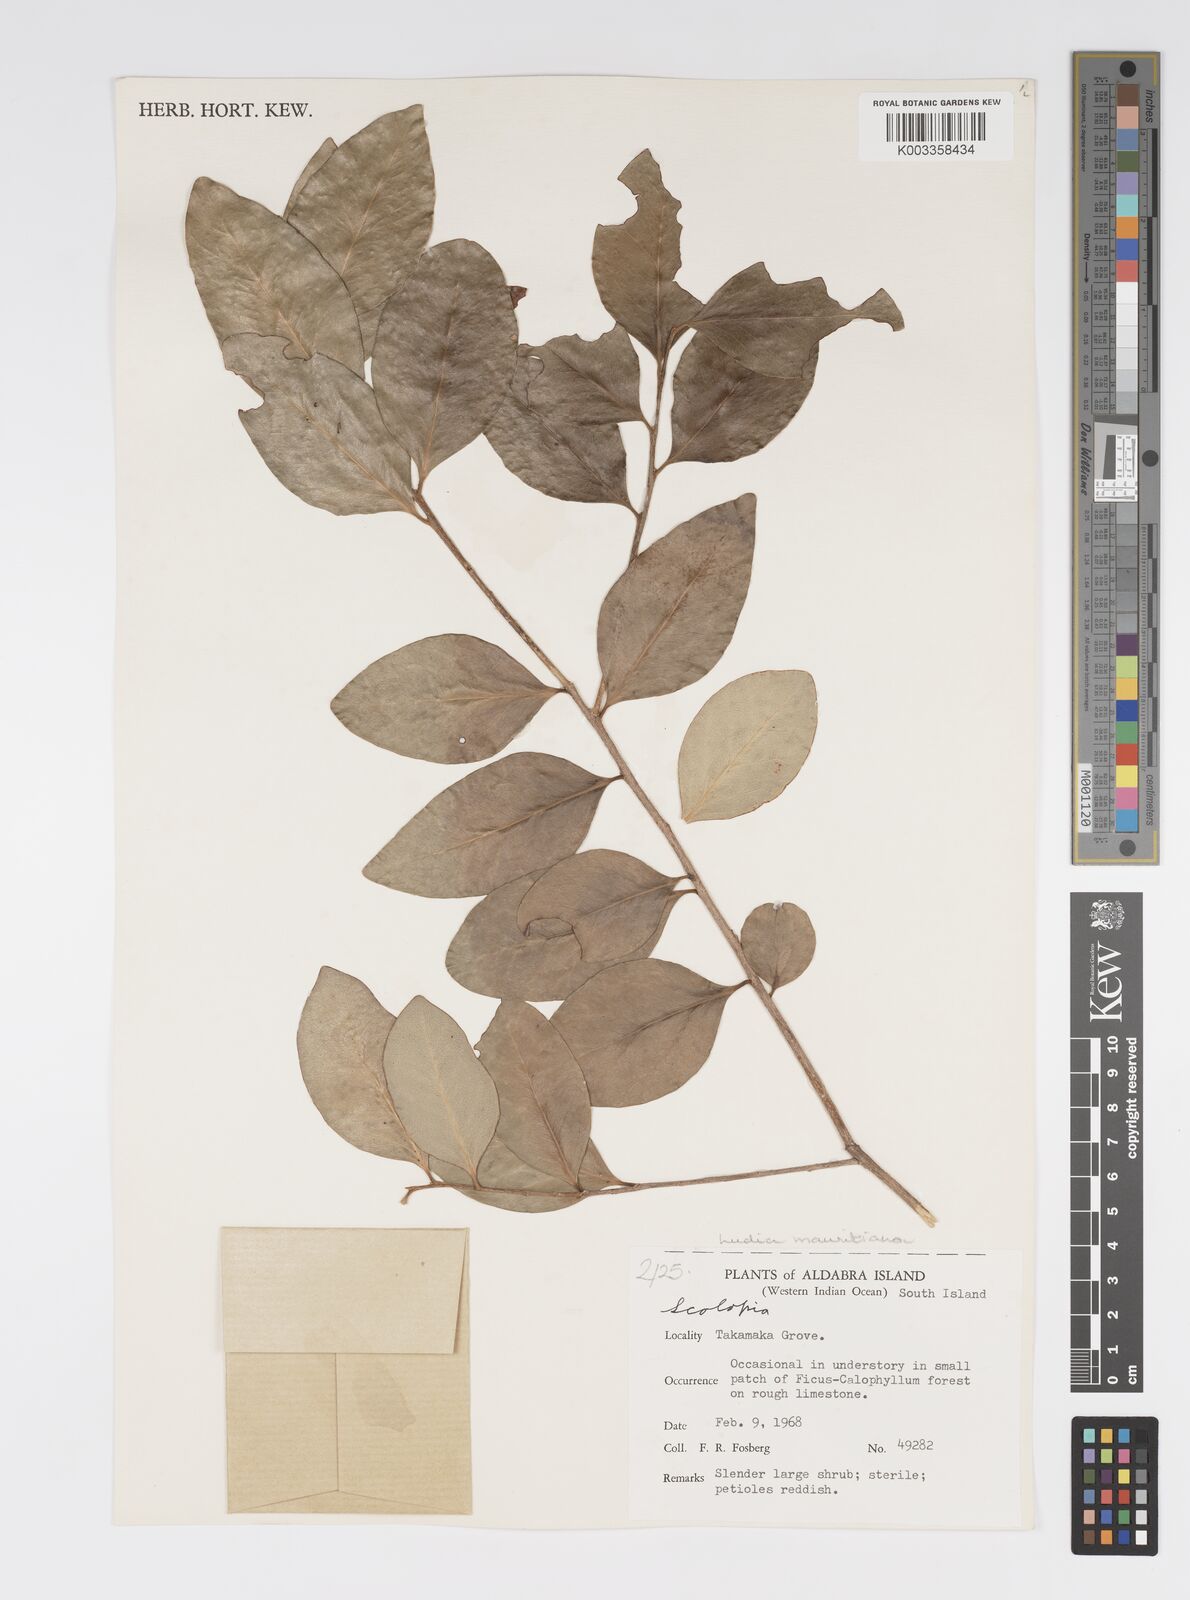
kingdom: Plantae
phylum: Tracheophyta
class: Magnoliopsida
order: Malpighiales
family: Salicaceae
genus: Ludia
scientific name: Ludia mauritiana
